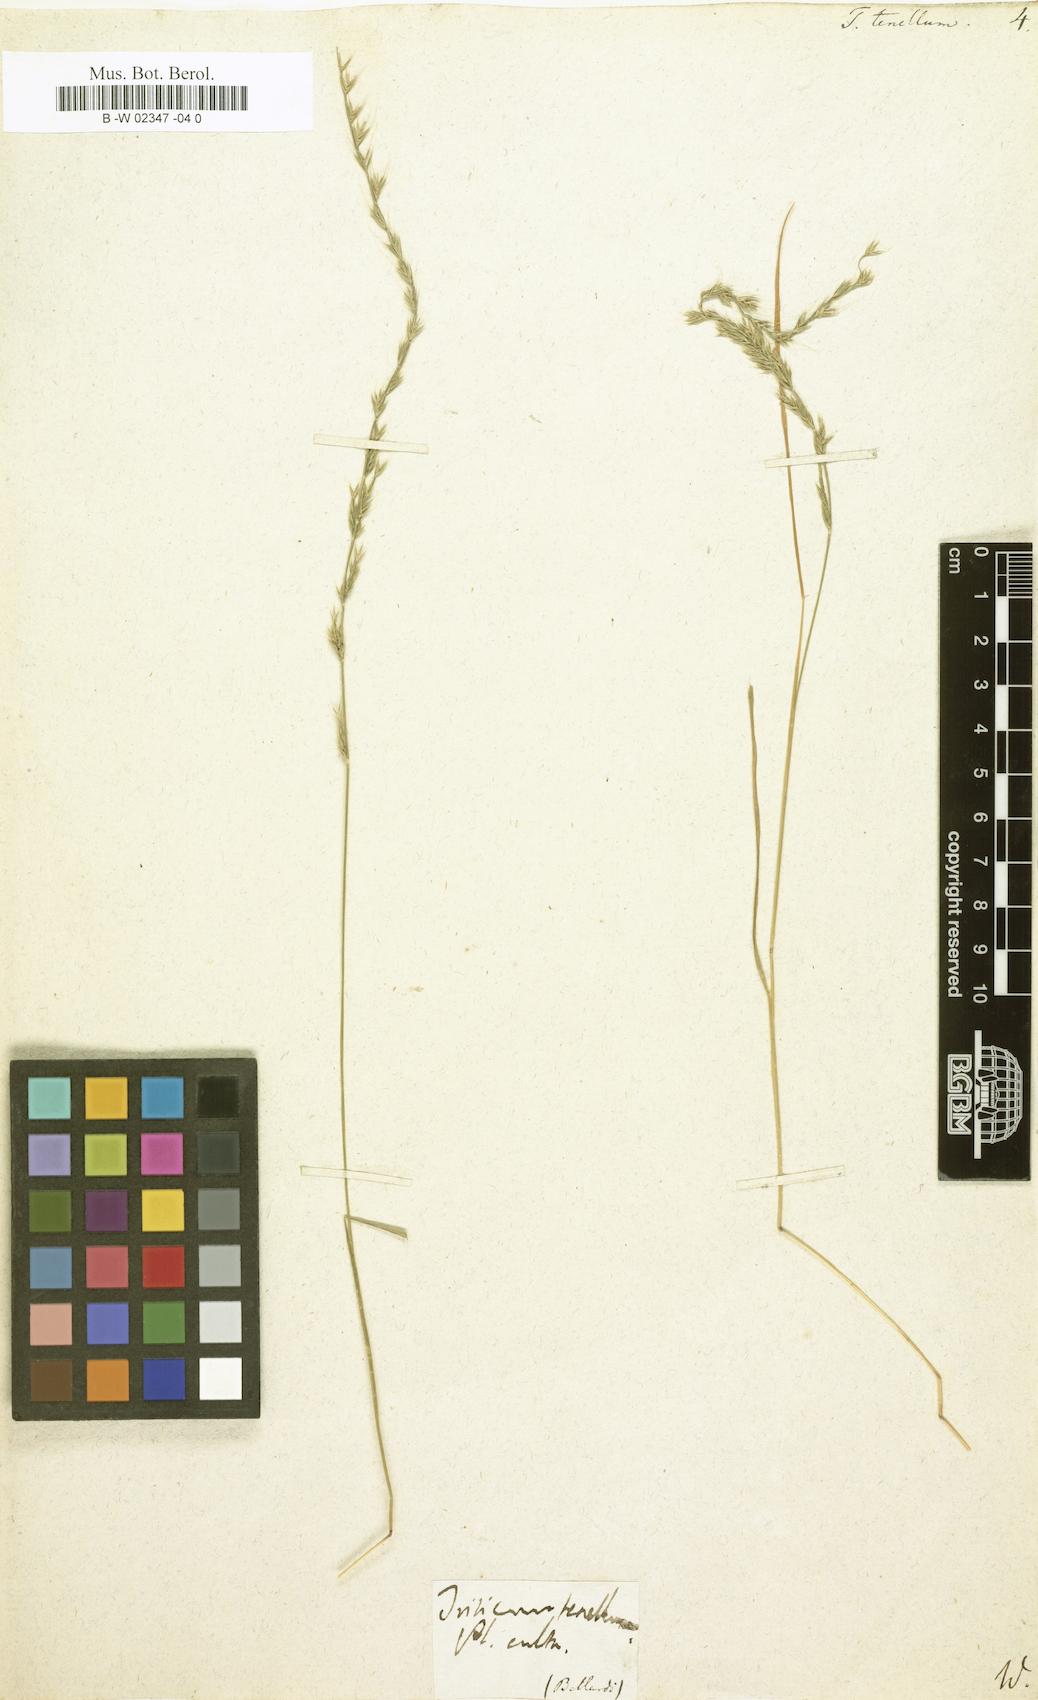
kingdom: Plantae
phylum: Tracheophyta
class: Liliopsida
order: Poales
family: Poaceae
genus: Triticum
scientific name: Triticum tenellum
